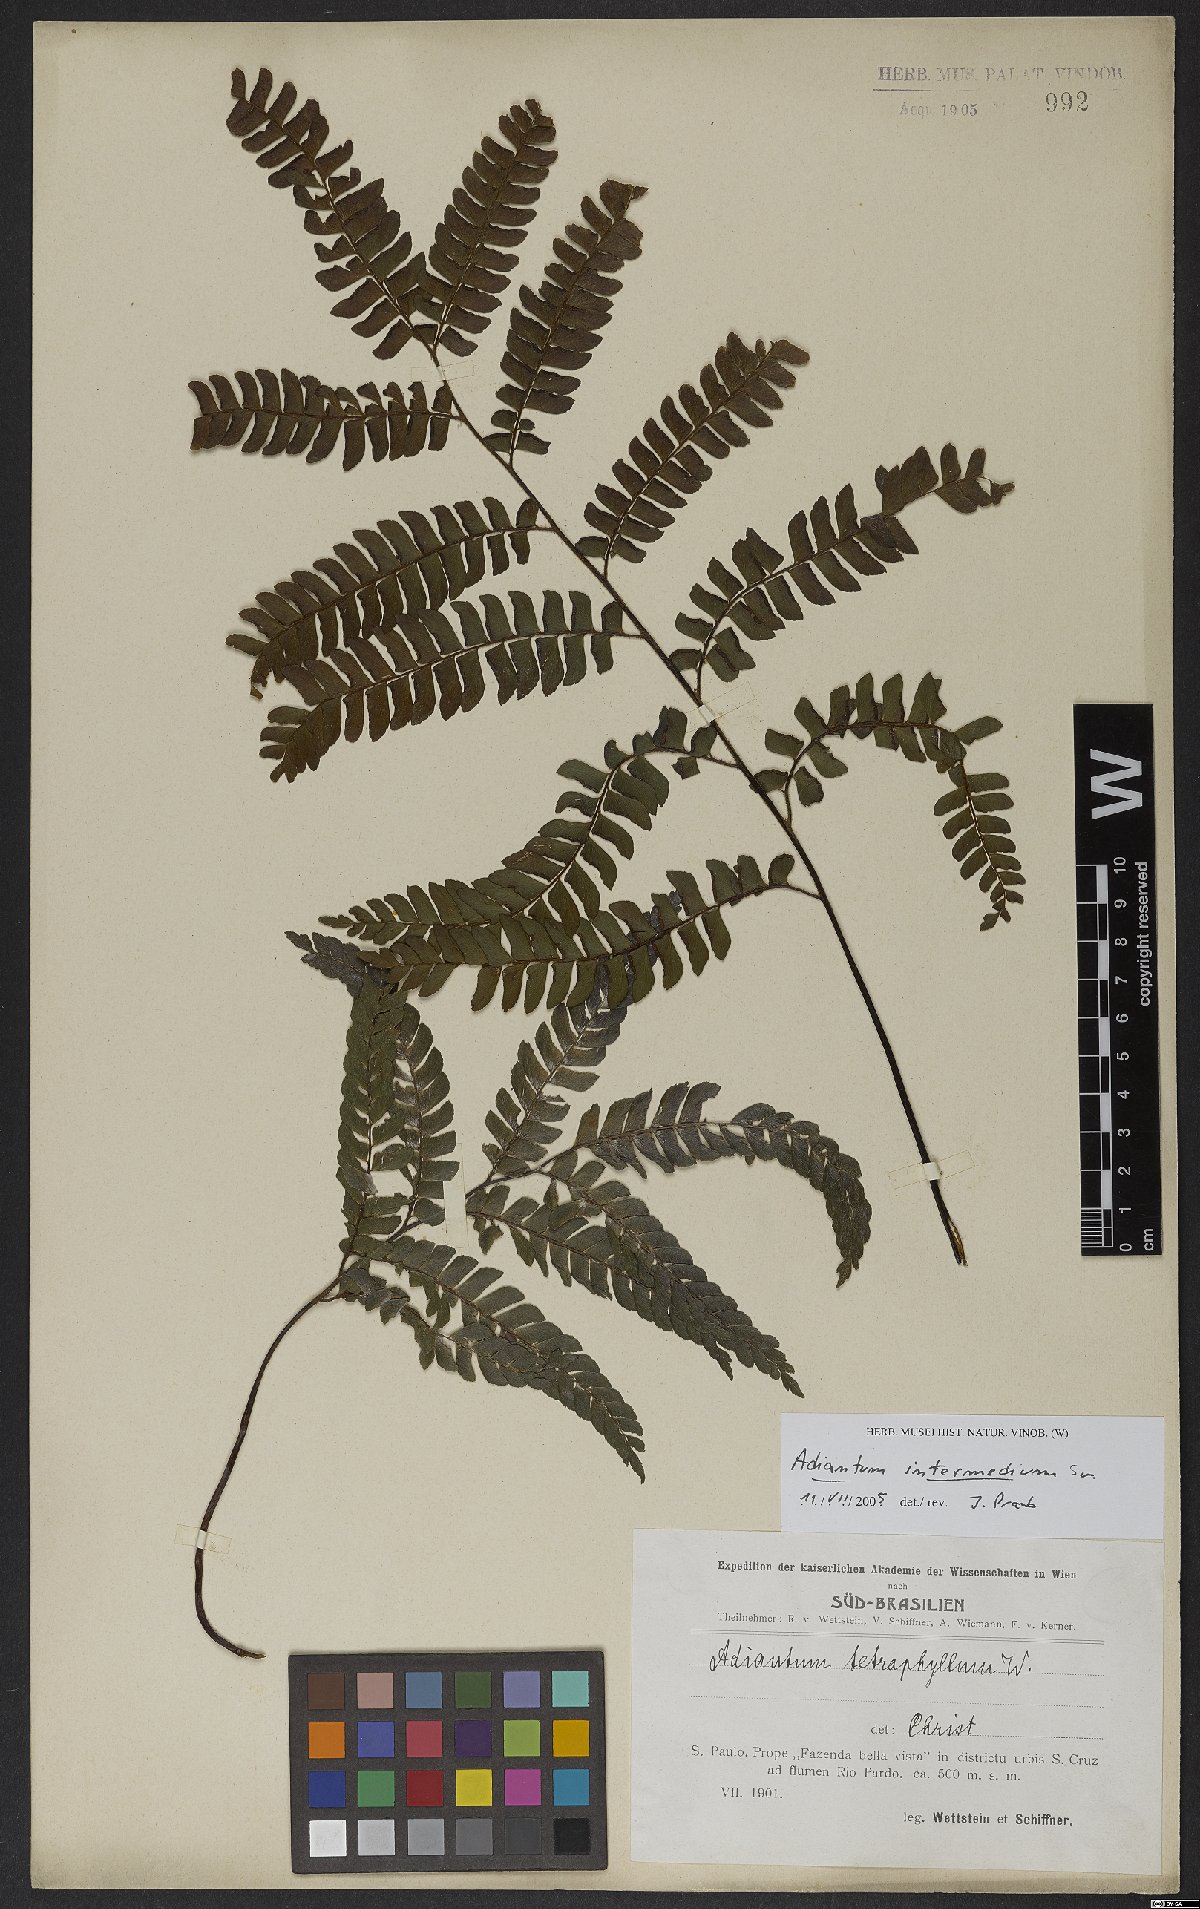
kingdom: Plantae
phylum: Tracheophyta
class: Polypodiopsida
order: Polypodiales
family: Pteridaceae
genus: Adiantum
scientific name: Adiantum intermedium
